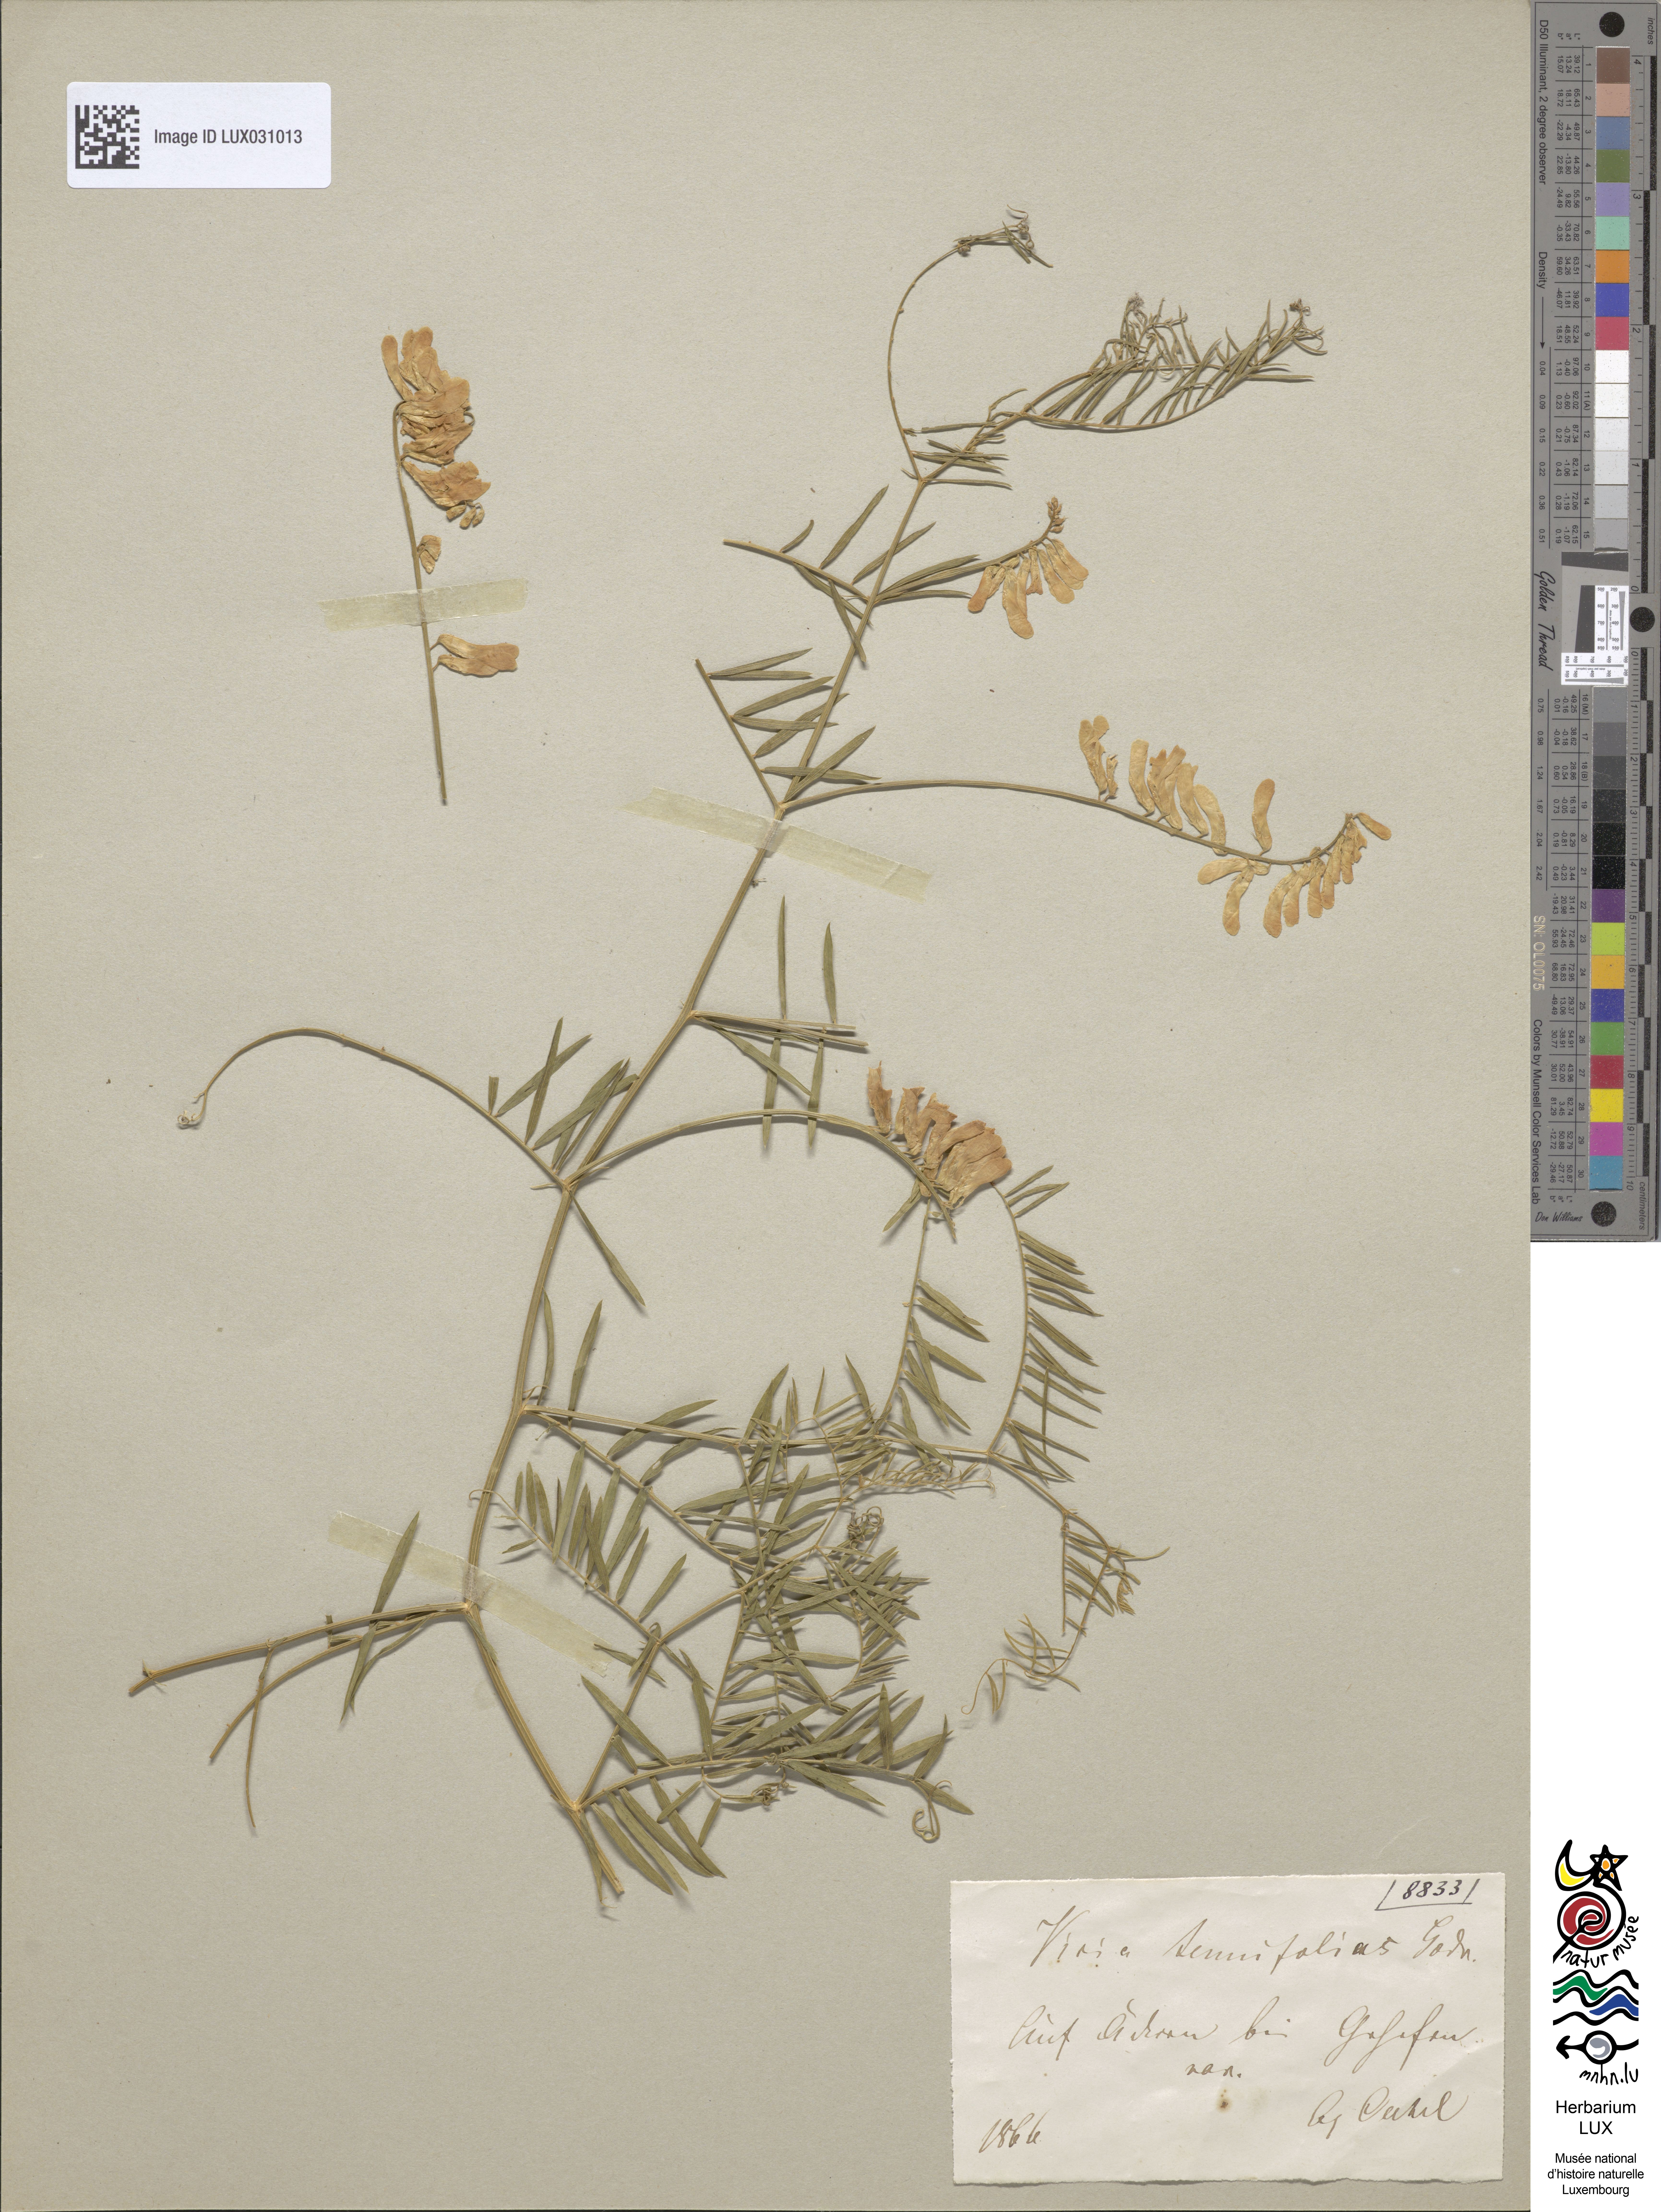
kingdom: Plantae
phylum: Tracheophyta
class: Magnoliopsida
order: Fabales
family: Fabaceae
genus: Vicia
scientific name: Vicia tenuifolia
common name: Fine-leaved vetch
